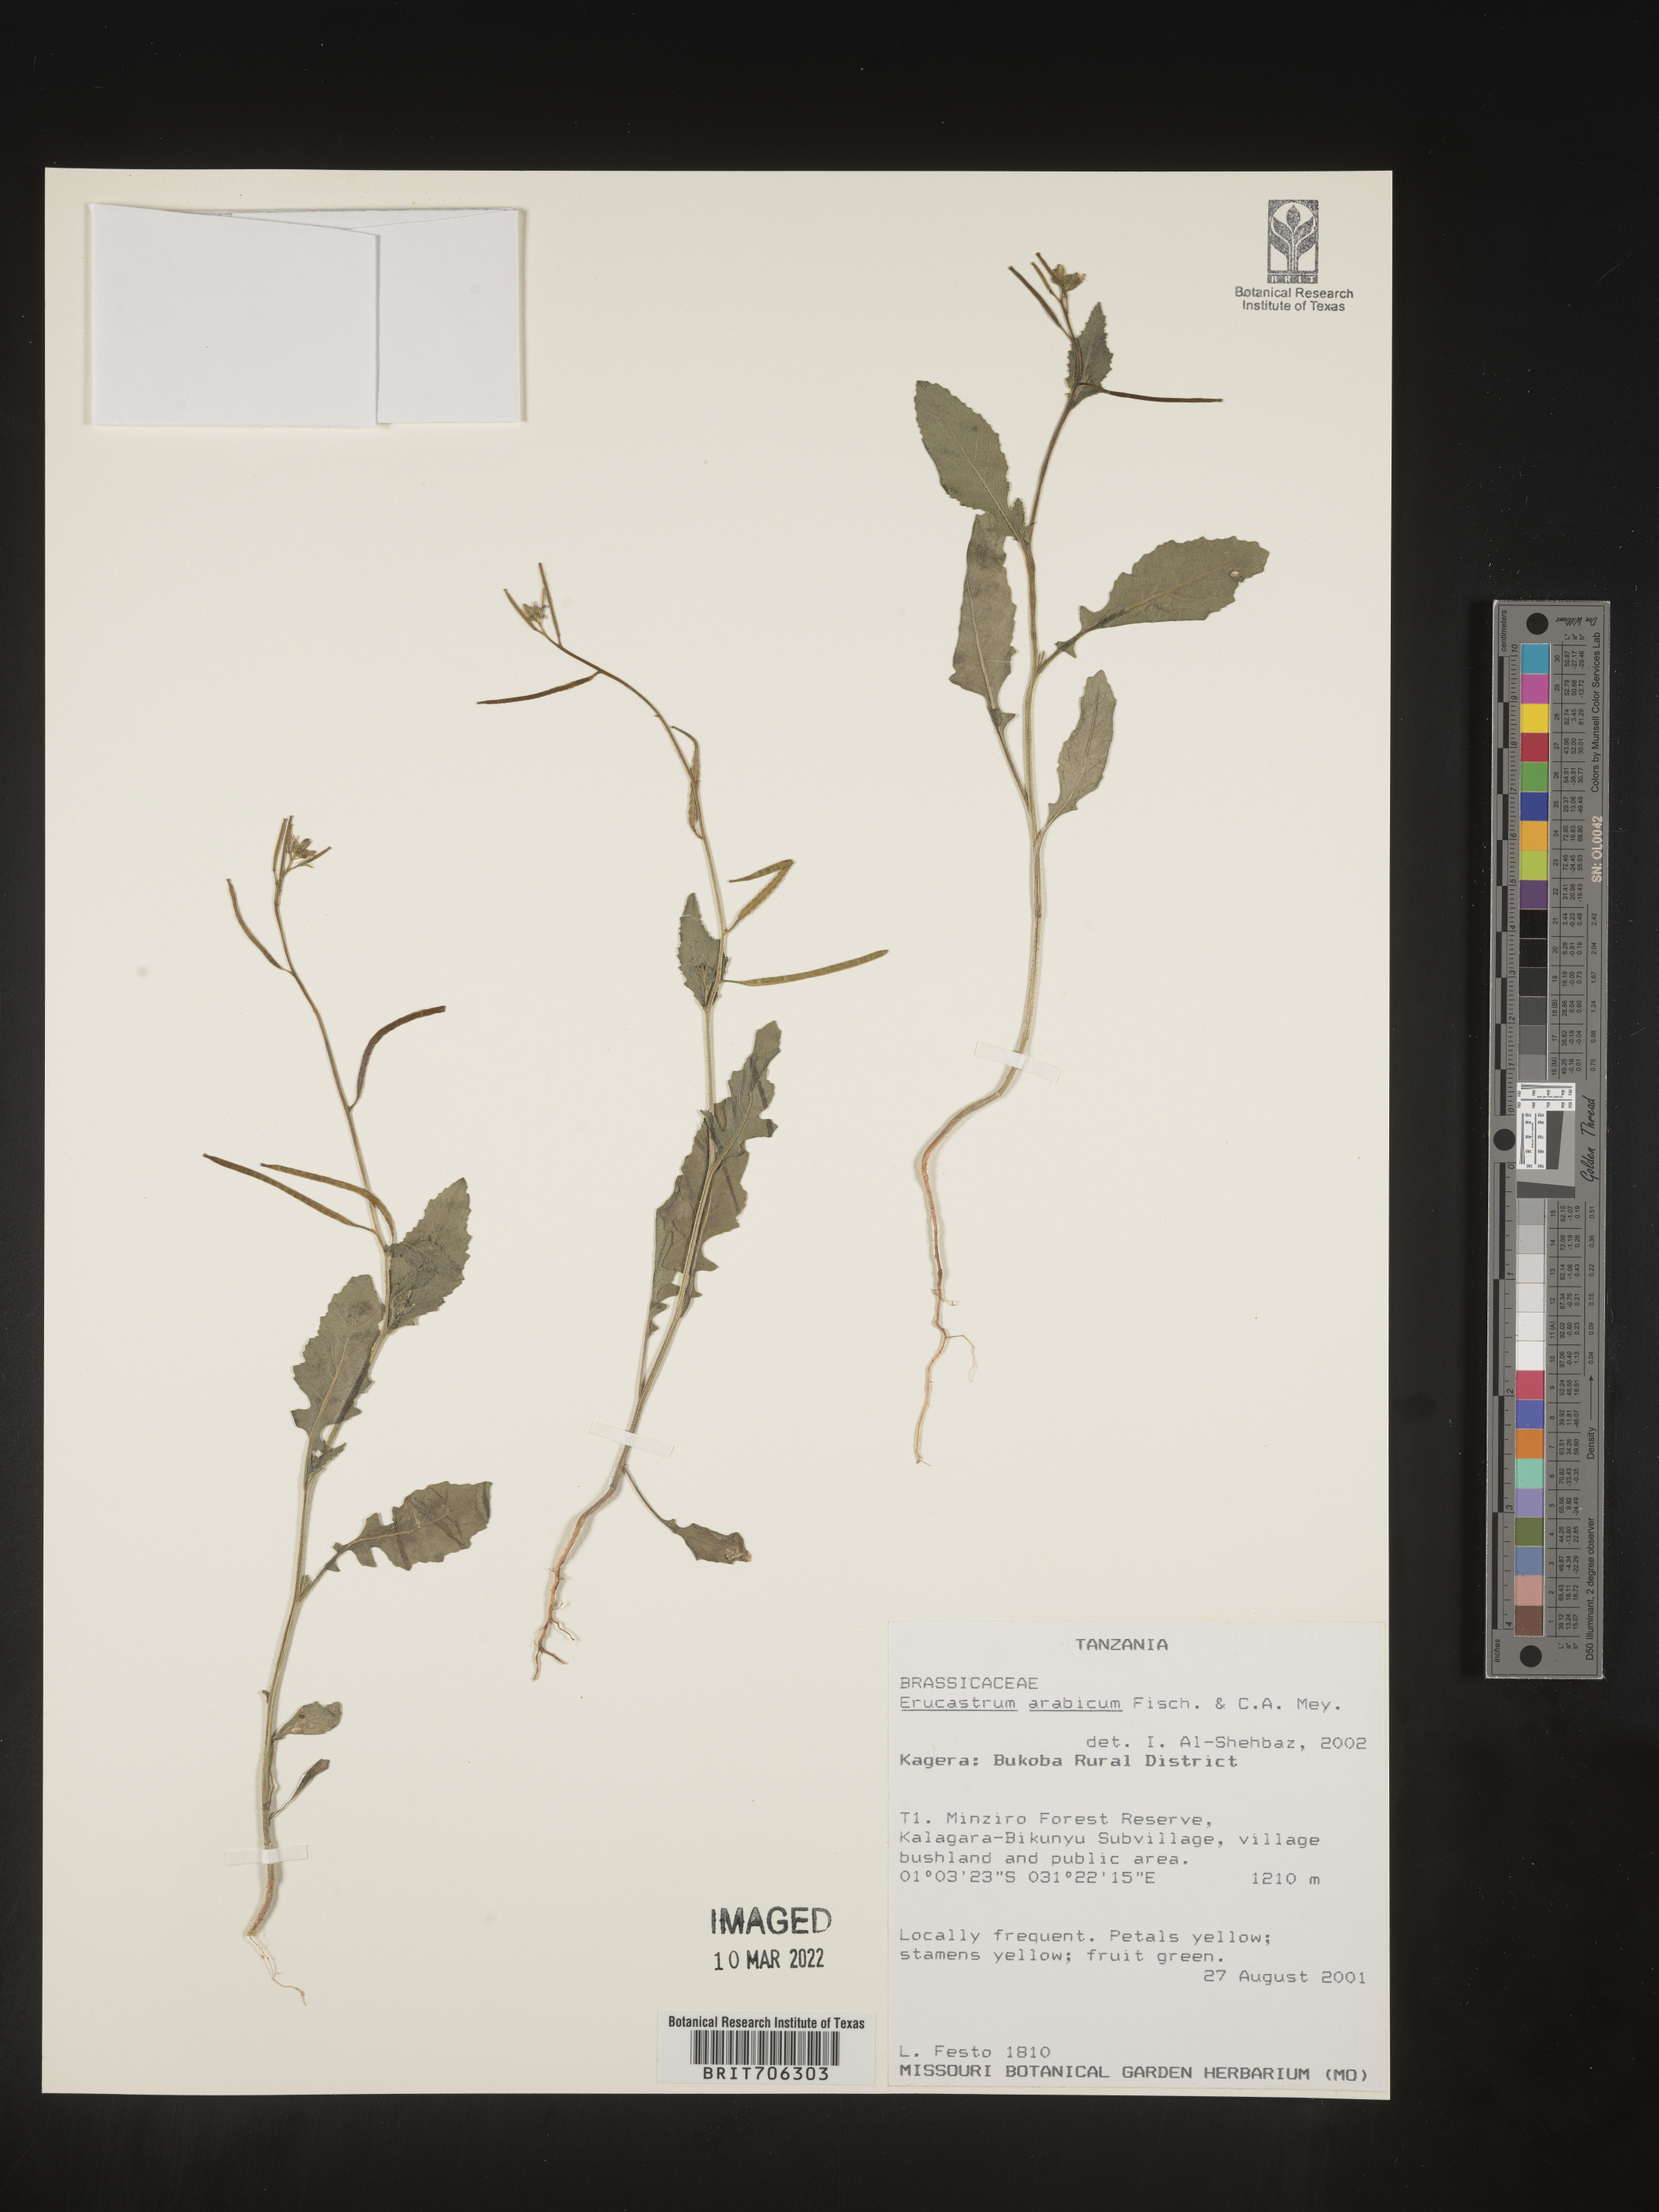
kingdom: Plantae
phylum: Tracheophyta
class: Magnoliopsida
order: Brassicales
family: Brassicaceae
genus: Erucastrum
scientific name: Erucastrum
